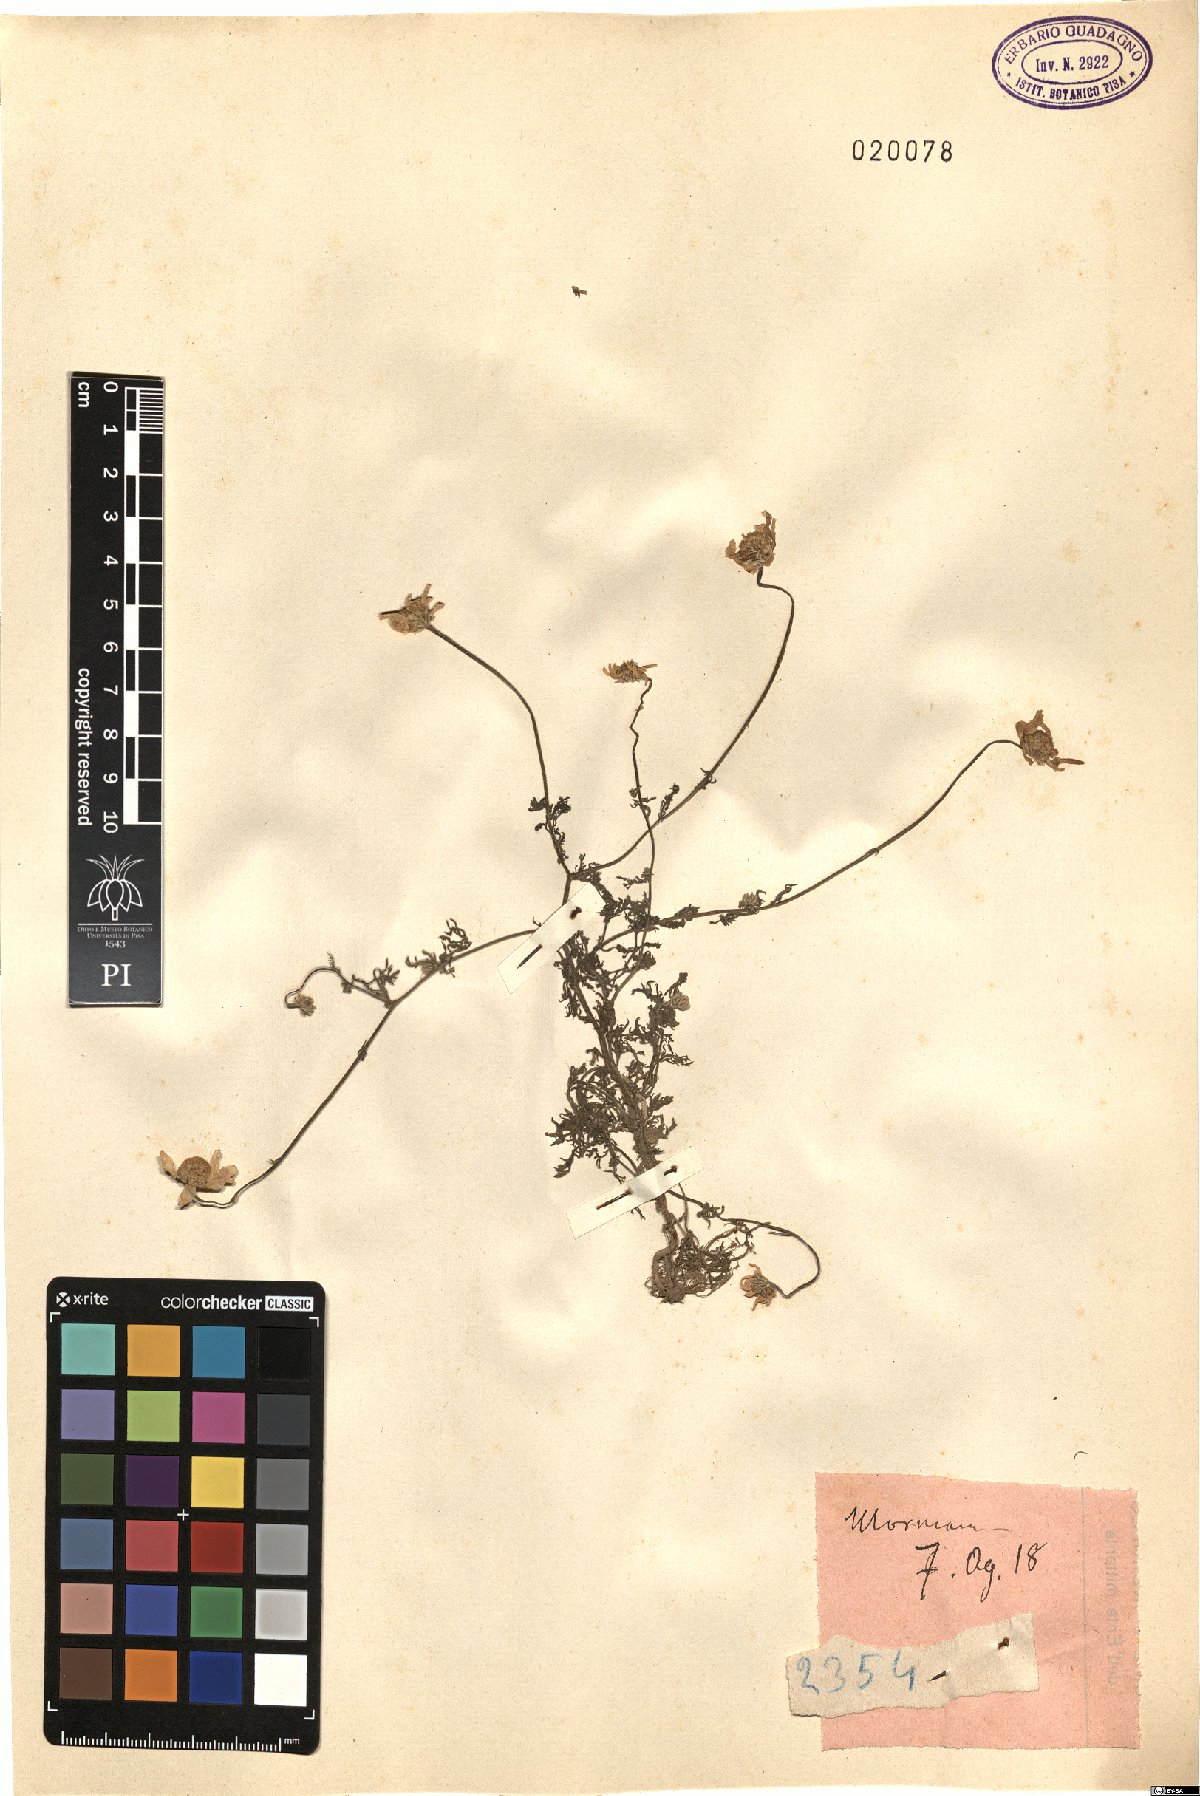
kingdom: Plantae
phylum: Tracheophyta
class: Magnoliopsida
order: Asterales
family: Asteraceae
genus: Anthemis
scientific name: Anthemis
